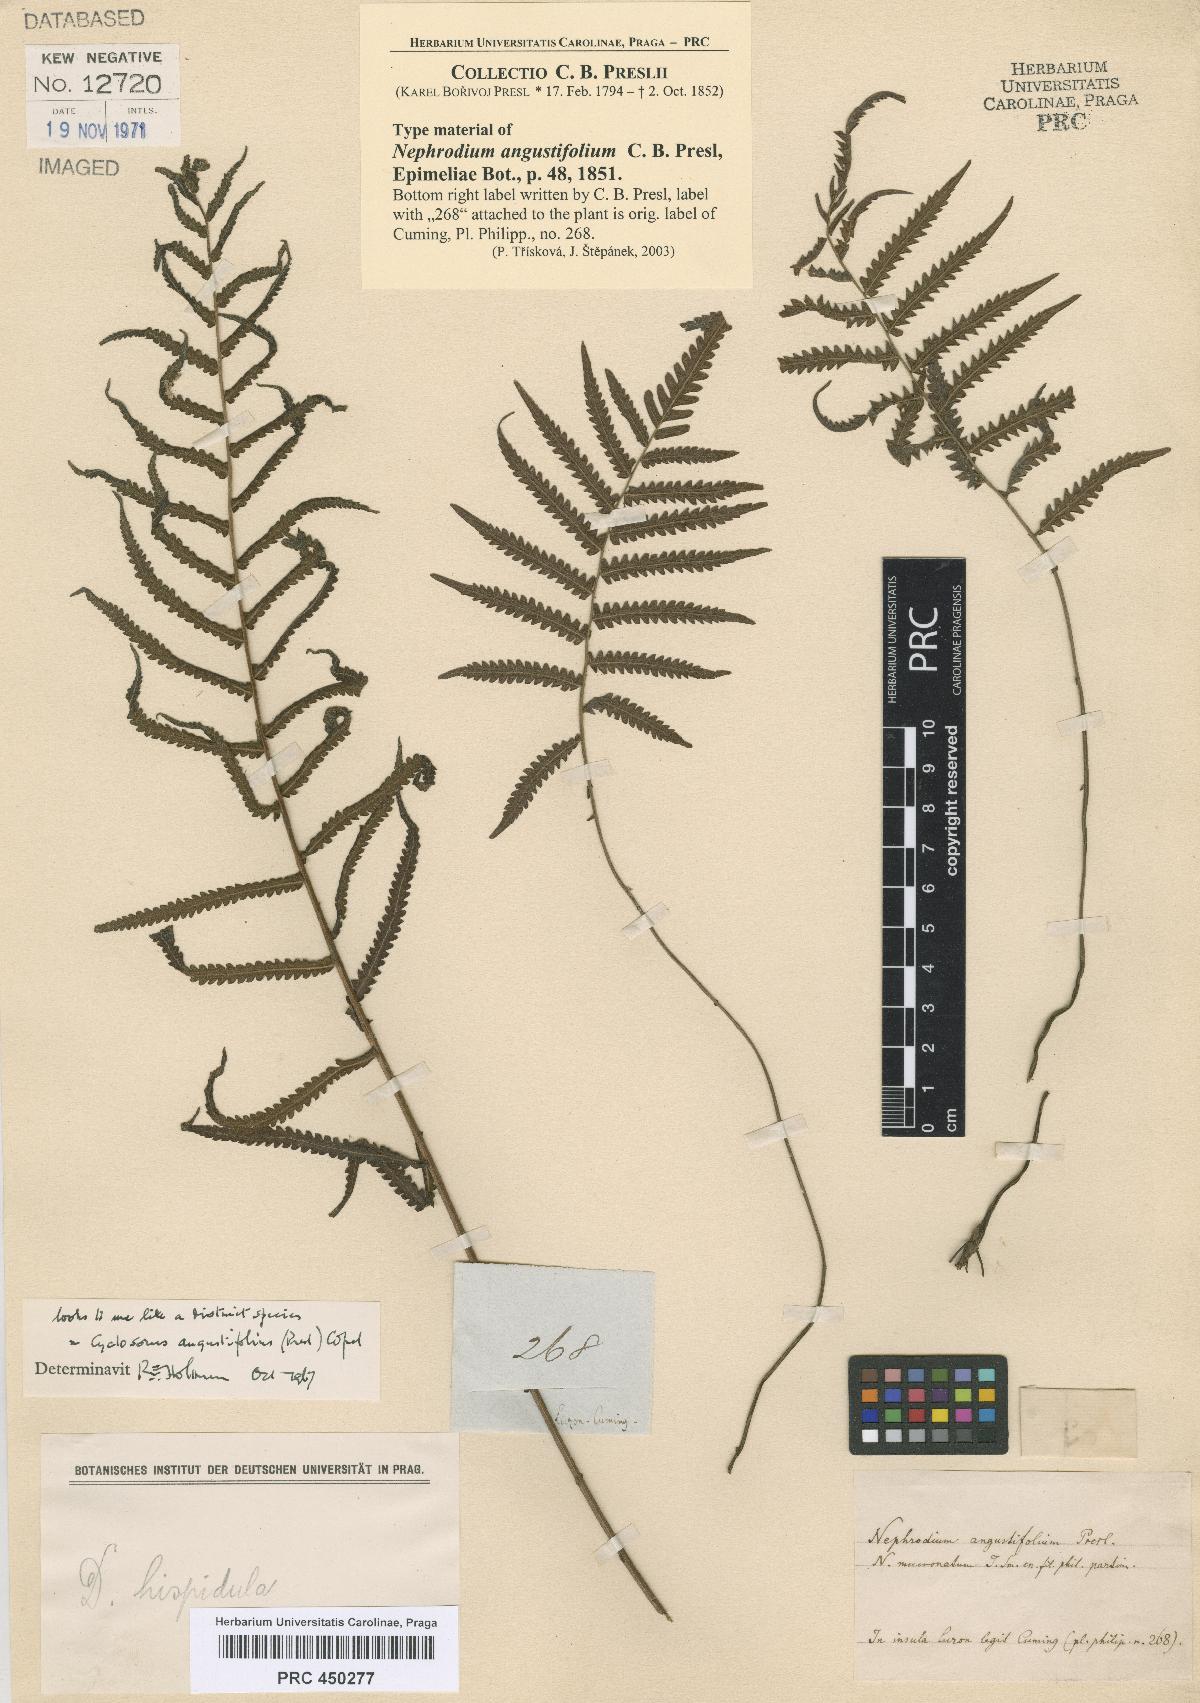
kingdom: Plantae
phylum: Tracheophyta
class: Polypodiopsida
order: Polypodiales
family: Thelypteridaceae
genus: Sphaerostephanos
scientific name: Sphaerostephanos angustifolius
